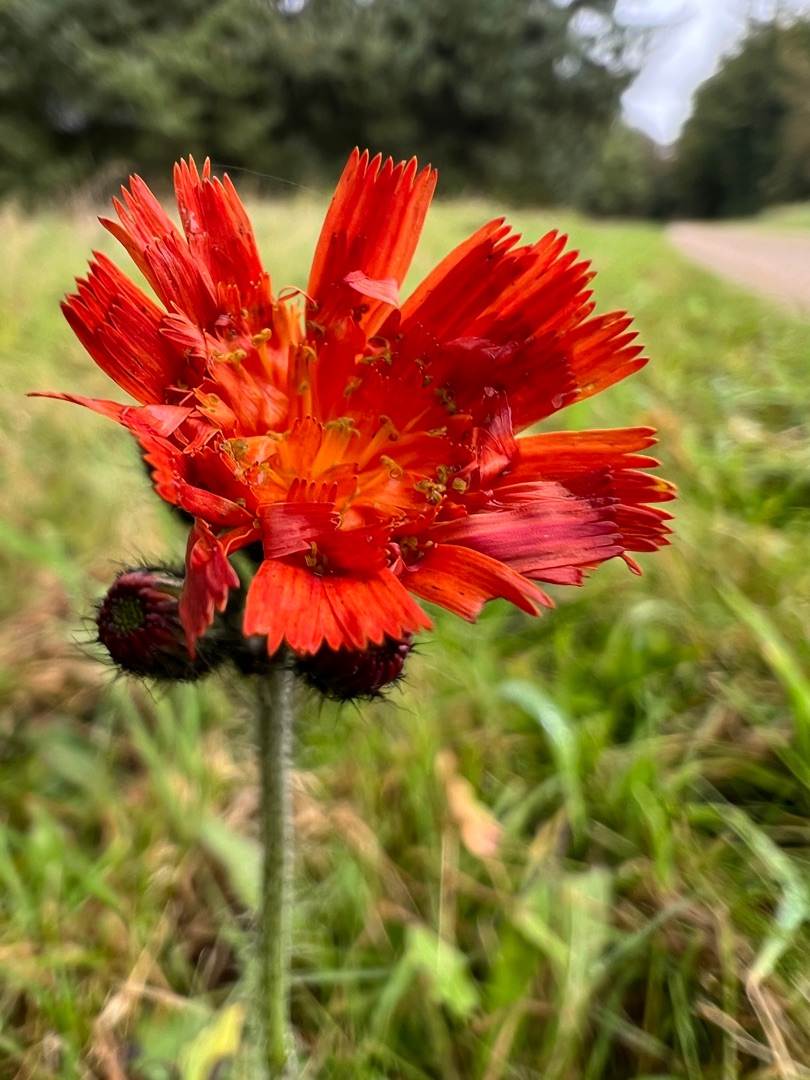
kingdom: Plantae
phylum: Tracheophyta
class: Magnoliopsida
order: Asterales
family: Asteraceae
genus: Pilosella
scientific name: Pilosella aurantiaca
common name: Pomerans-høgeurt
